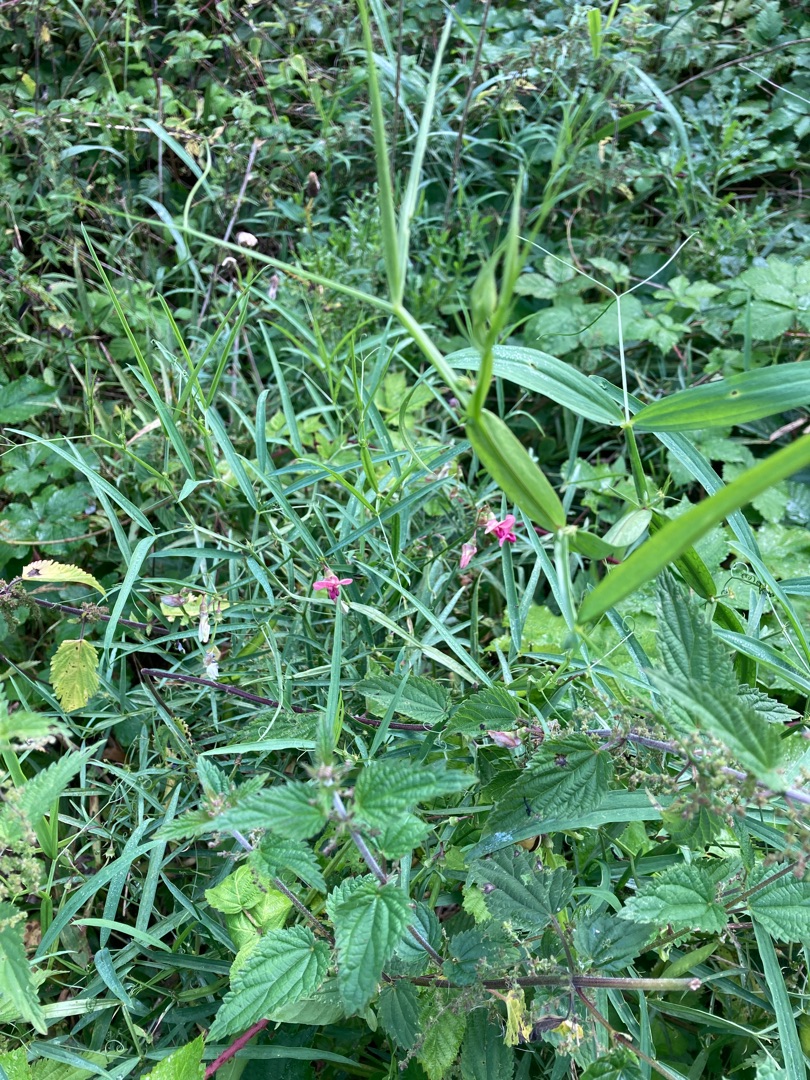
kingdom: Plantae
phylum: Tracheophyta
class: Magnoliopsida
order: Fabales
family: Fabaceae
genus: Lathyrus
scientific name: Lathyrus sylvestris
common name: Skov-fladbælg
